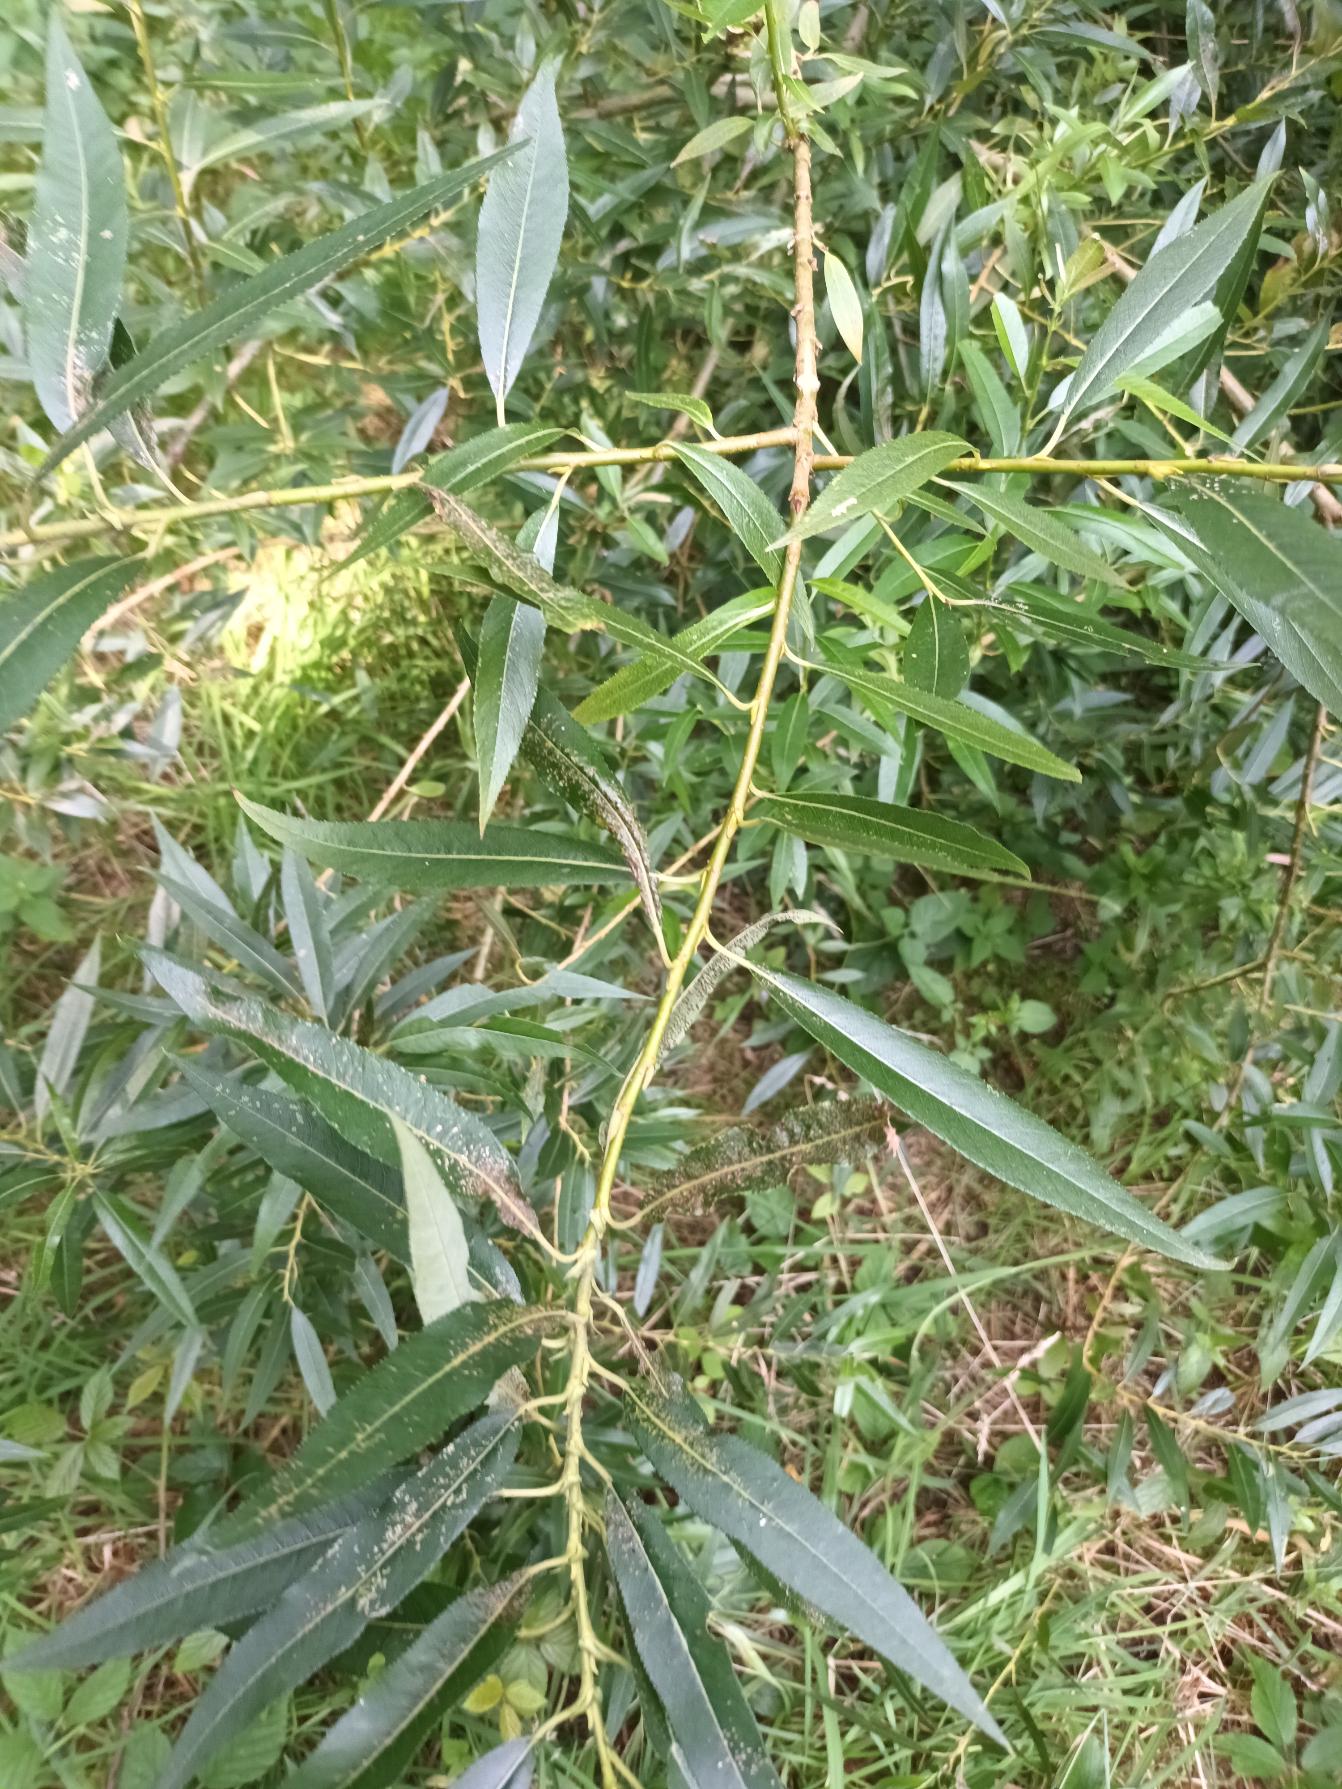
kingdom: Plantae
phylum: Tracheophyta
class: Magnoliopsida
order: Malpighiales
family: Salicaceae
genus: Salix
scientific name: Salix alba
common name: Skør-pil
